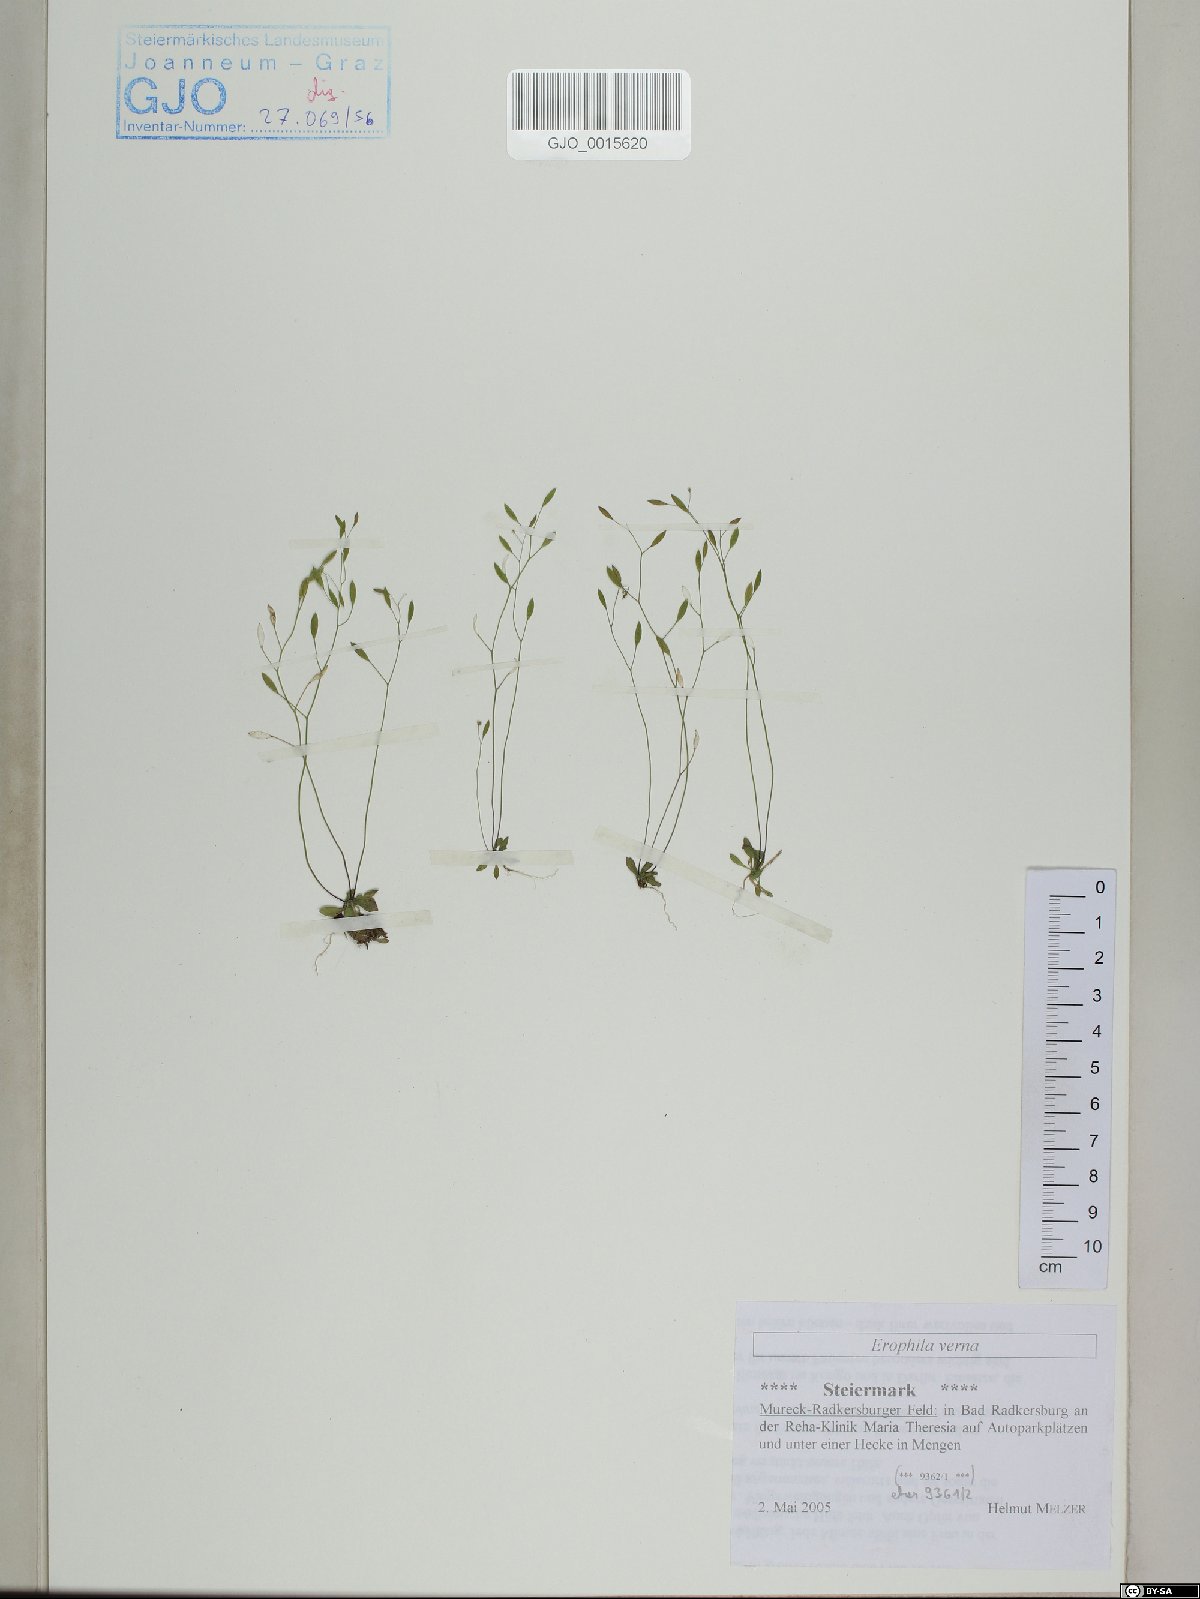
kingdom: Plantae
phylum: Tracheophyta
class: Magnoliopsida
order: Brassicales
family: Brassicaceae
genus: Draba
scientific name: Draba verna
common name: Spring draba
